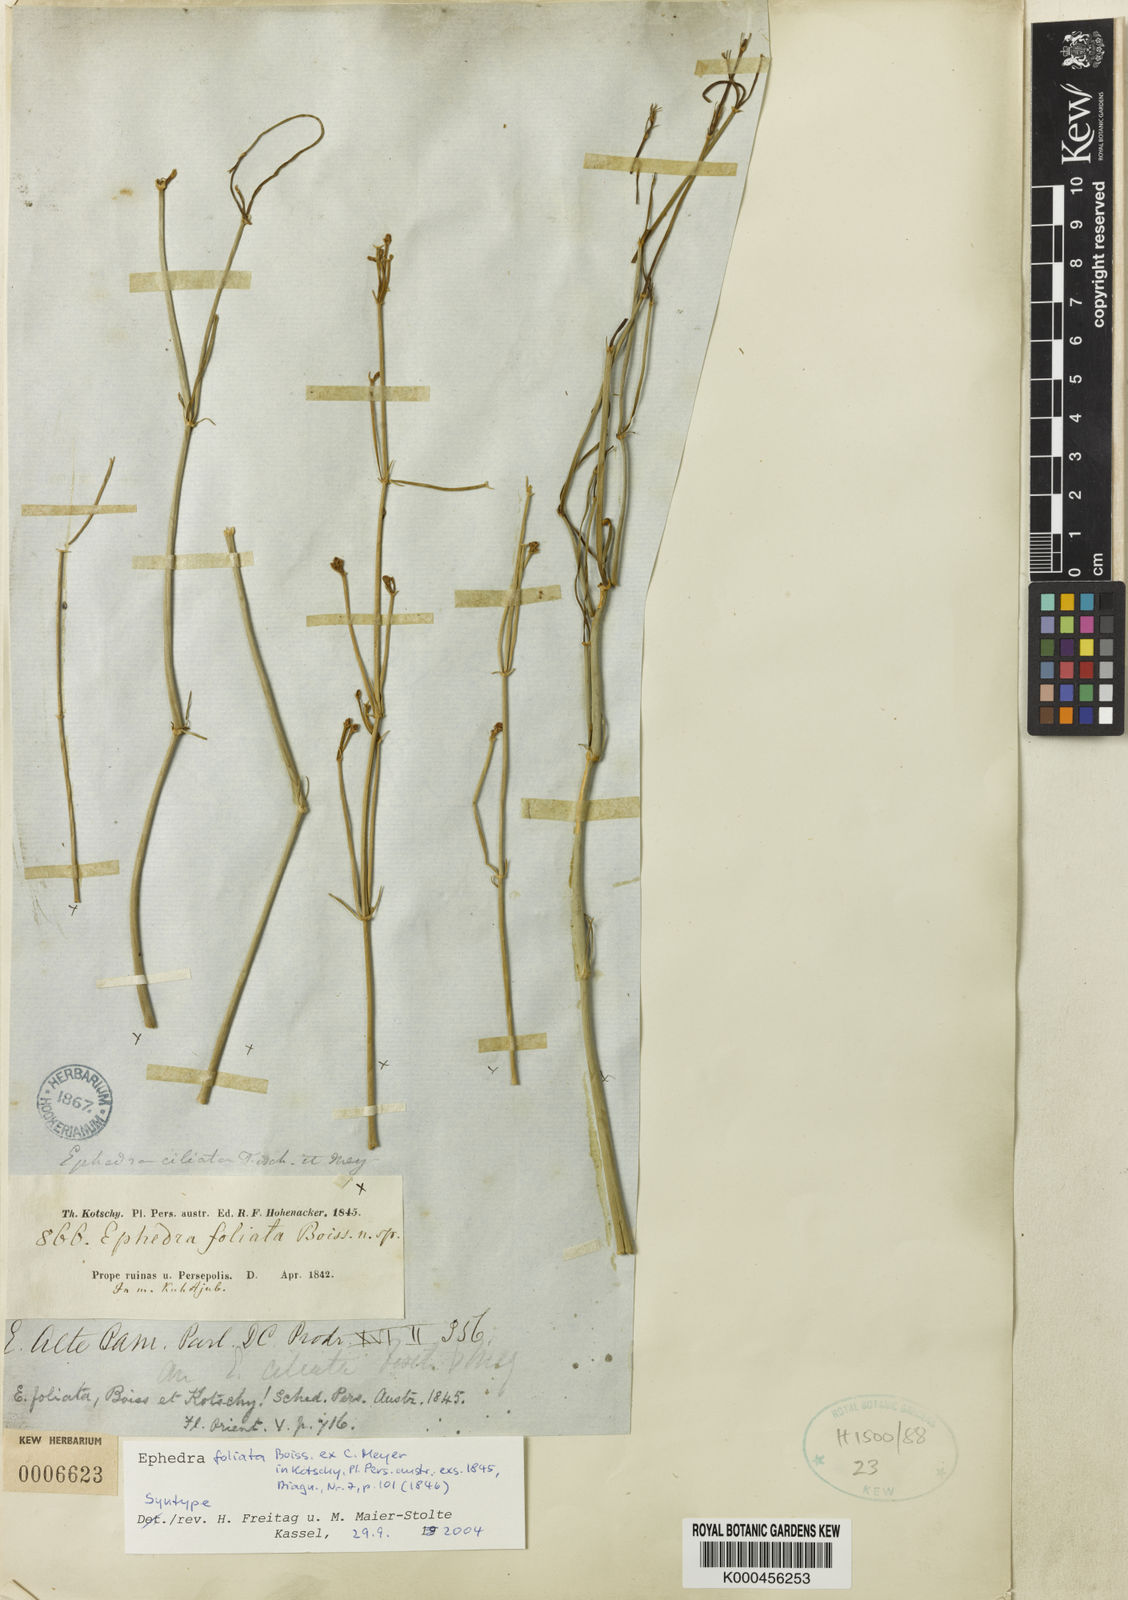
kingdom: Plantae
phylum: Tracheophyta
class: Gnetopsida
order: Ephedrales
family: Ephedraceae
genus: Ephedra
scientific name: Ephedra ciliata
